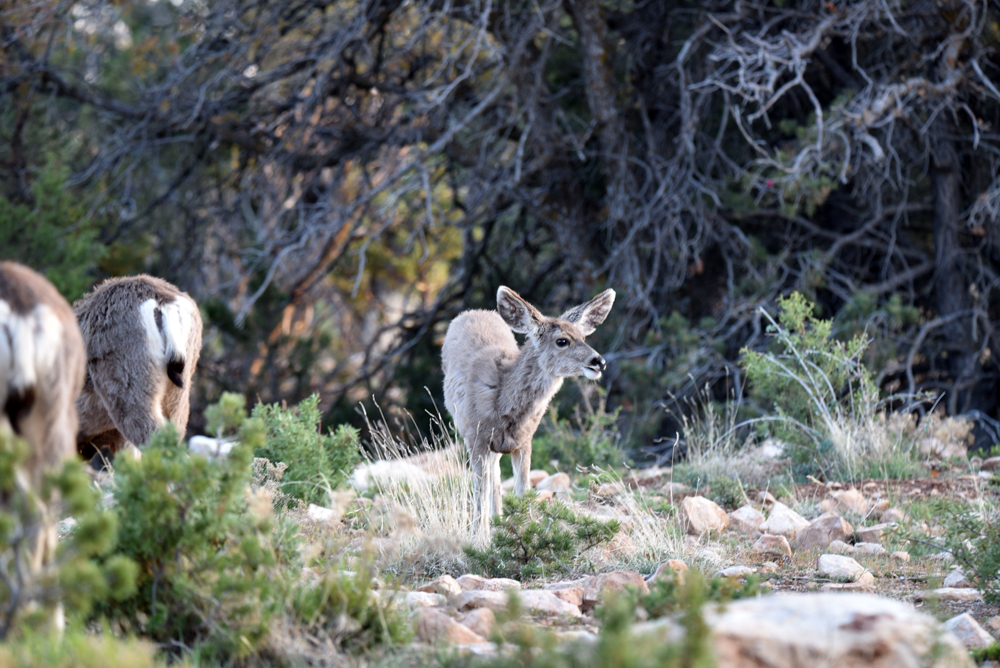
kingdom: Animalia
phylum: Chordata
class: Mammalia
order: Artiodactyla
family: Cervidae
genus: Odocoileus
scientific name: Odocoileus hemionus
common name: Mule deer
